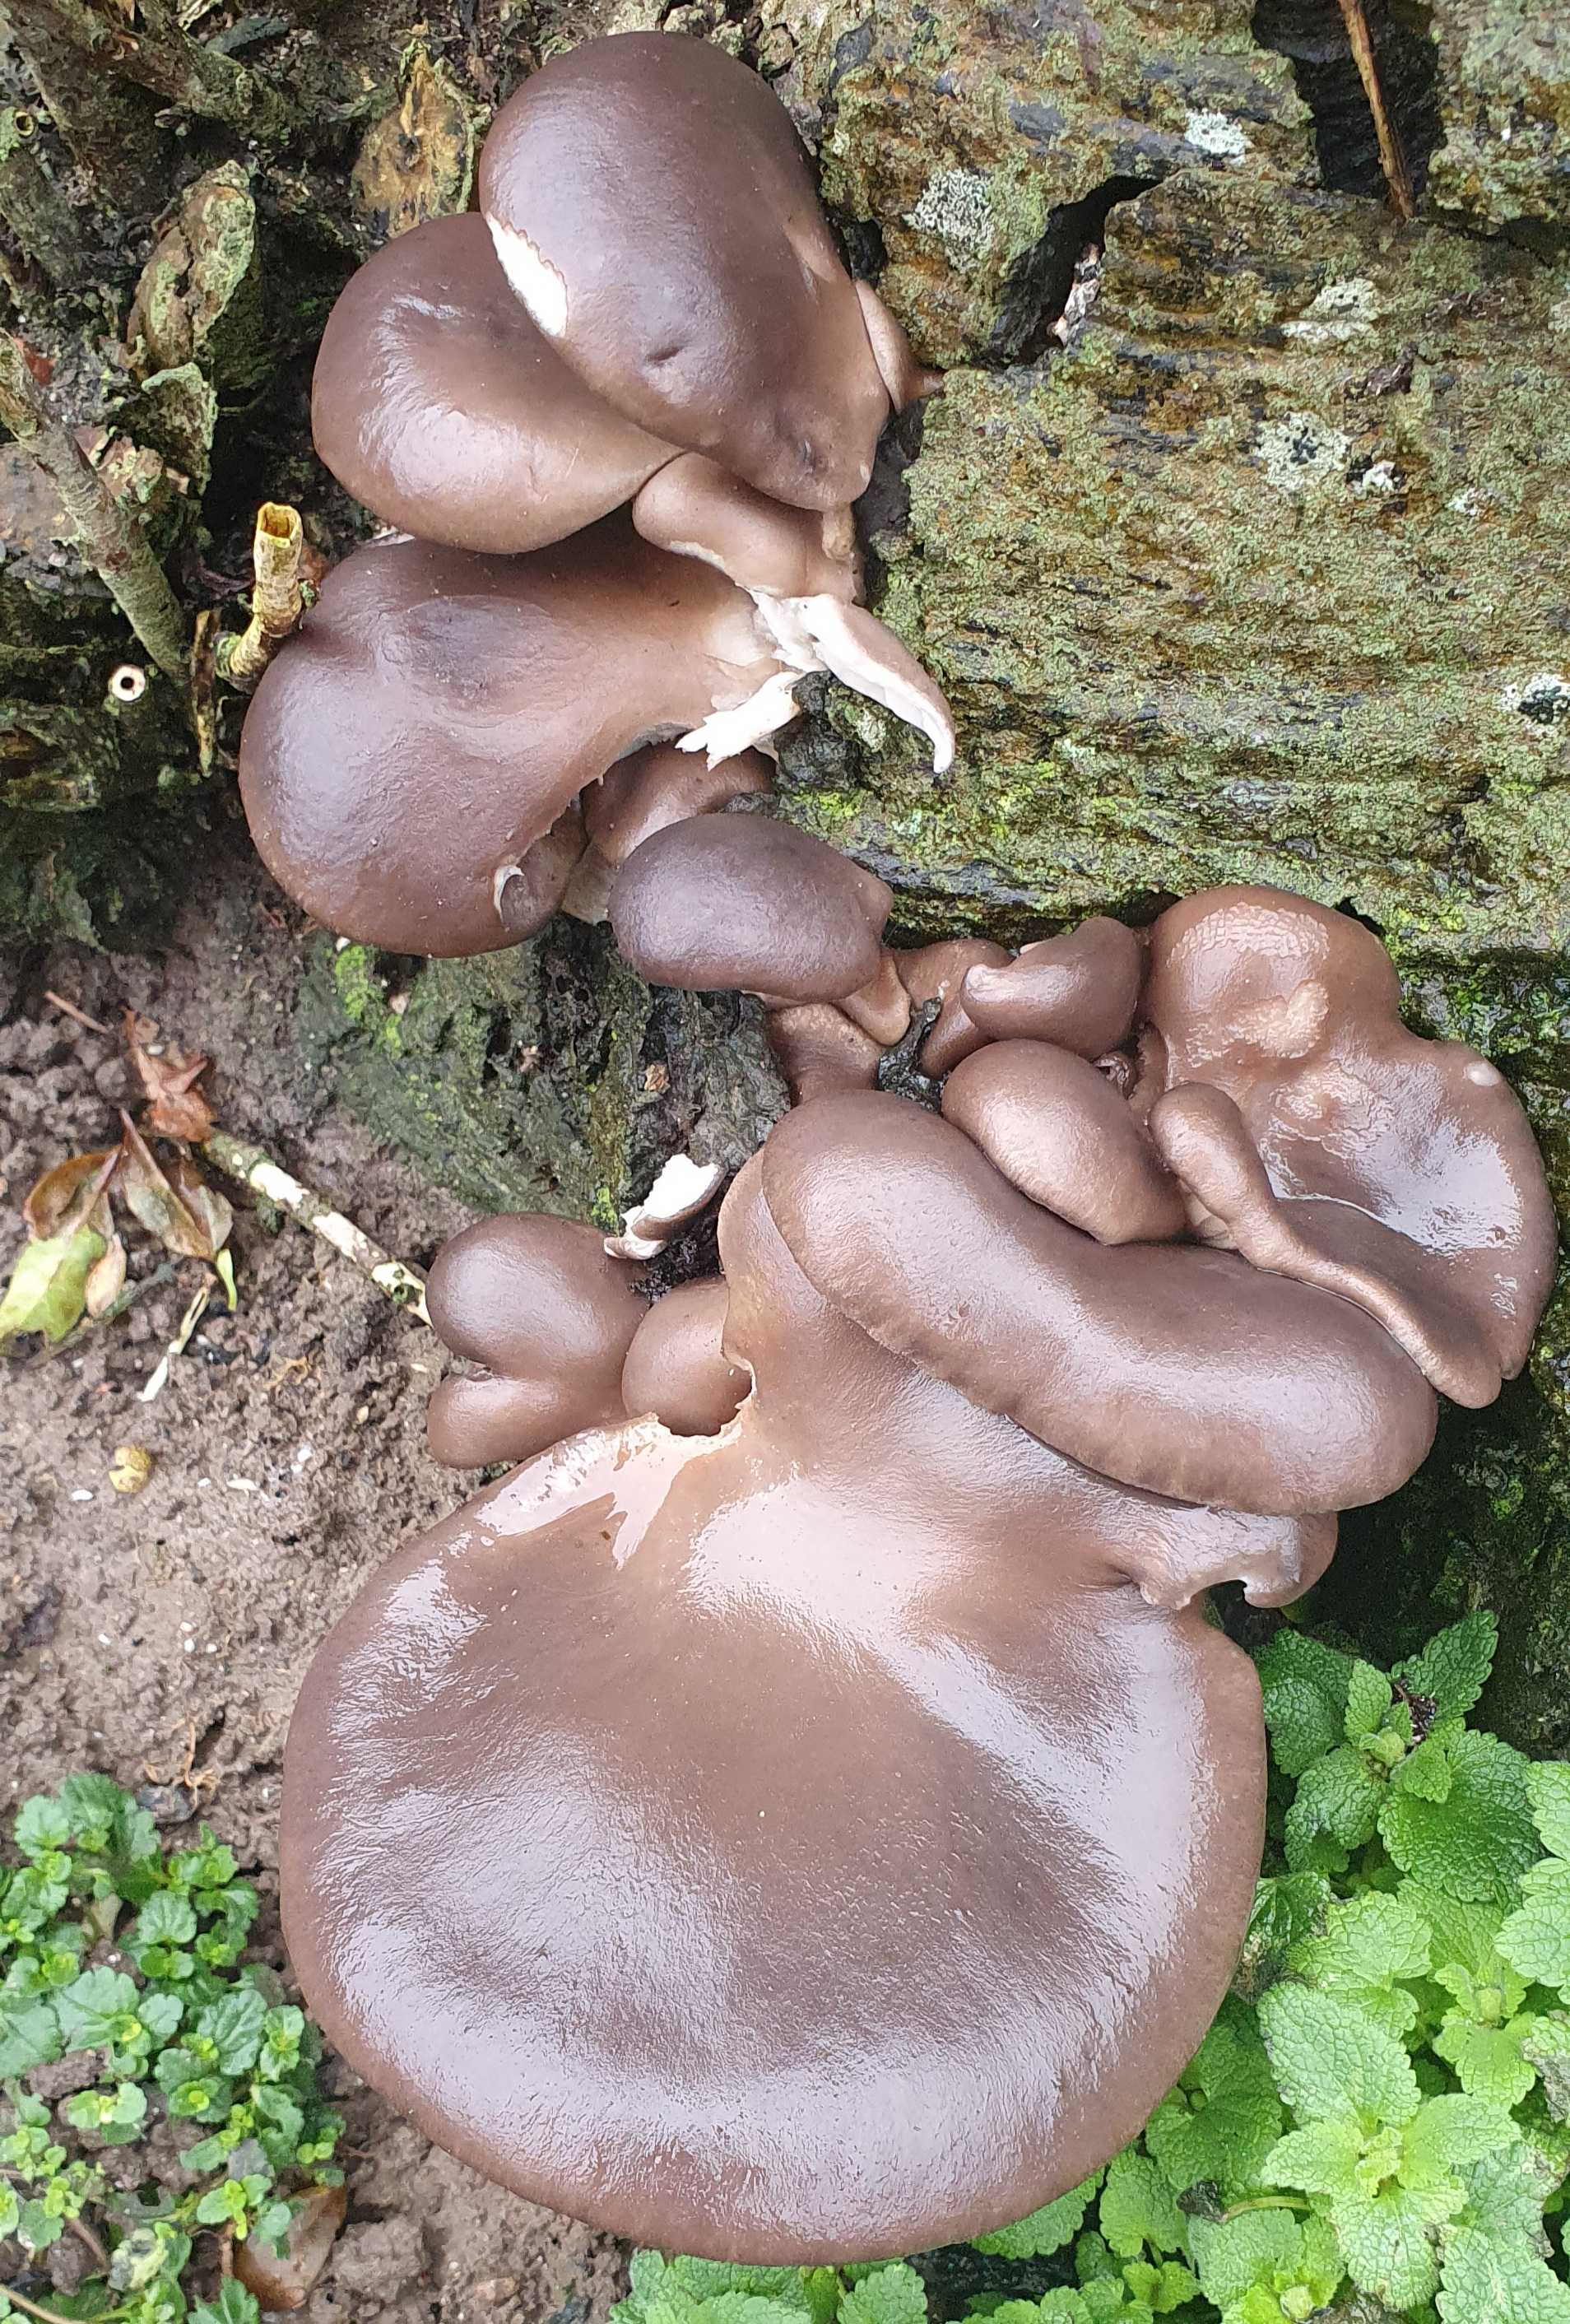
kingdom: Fungi
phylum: Basidiomycota
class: Agaricomycetes
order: Agaricales
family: Pleurotaceae
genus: Pleurotus
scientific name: Pleurotus ostreatus
